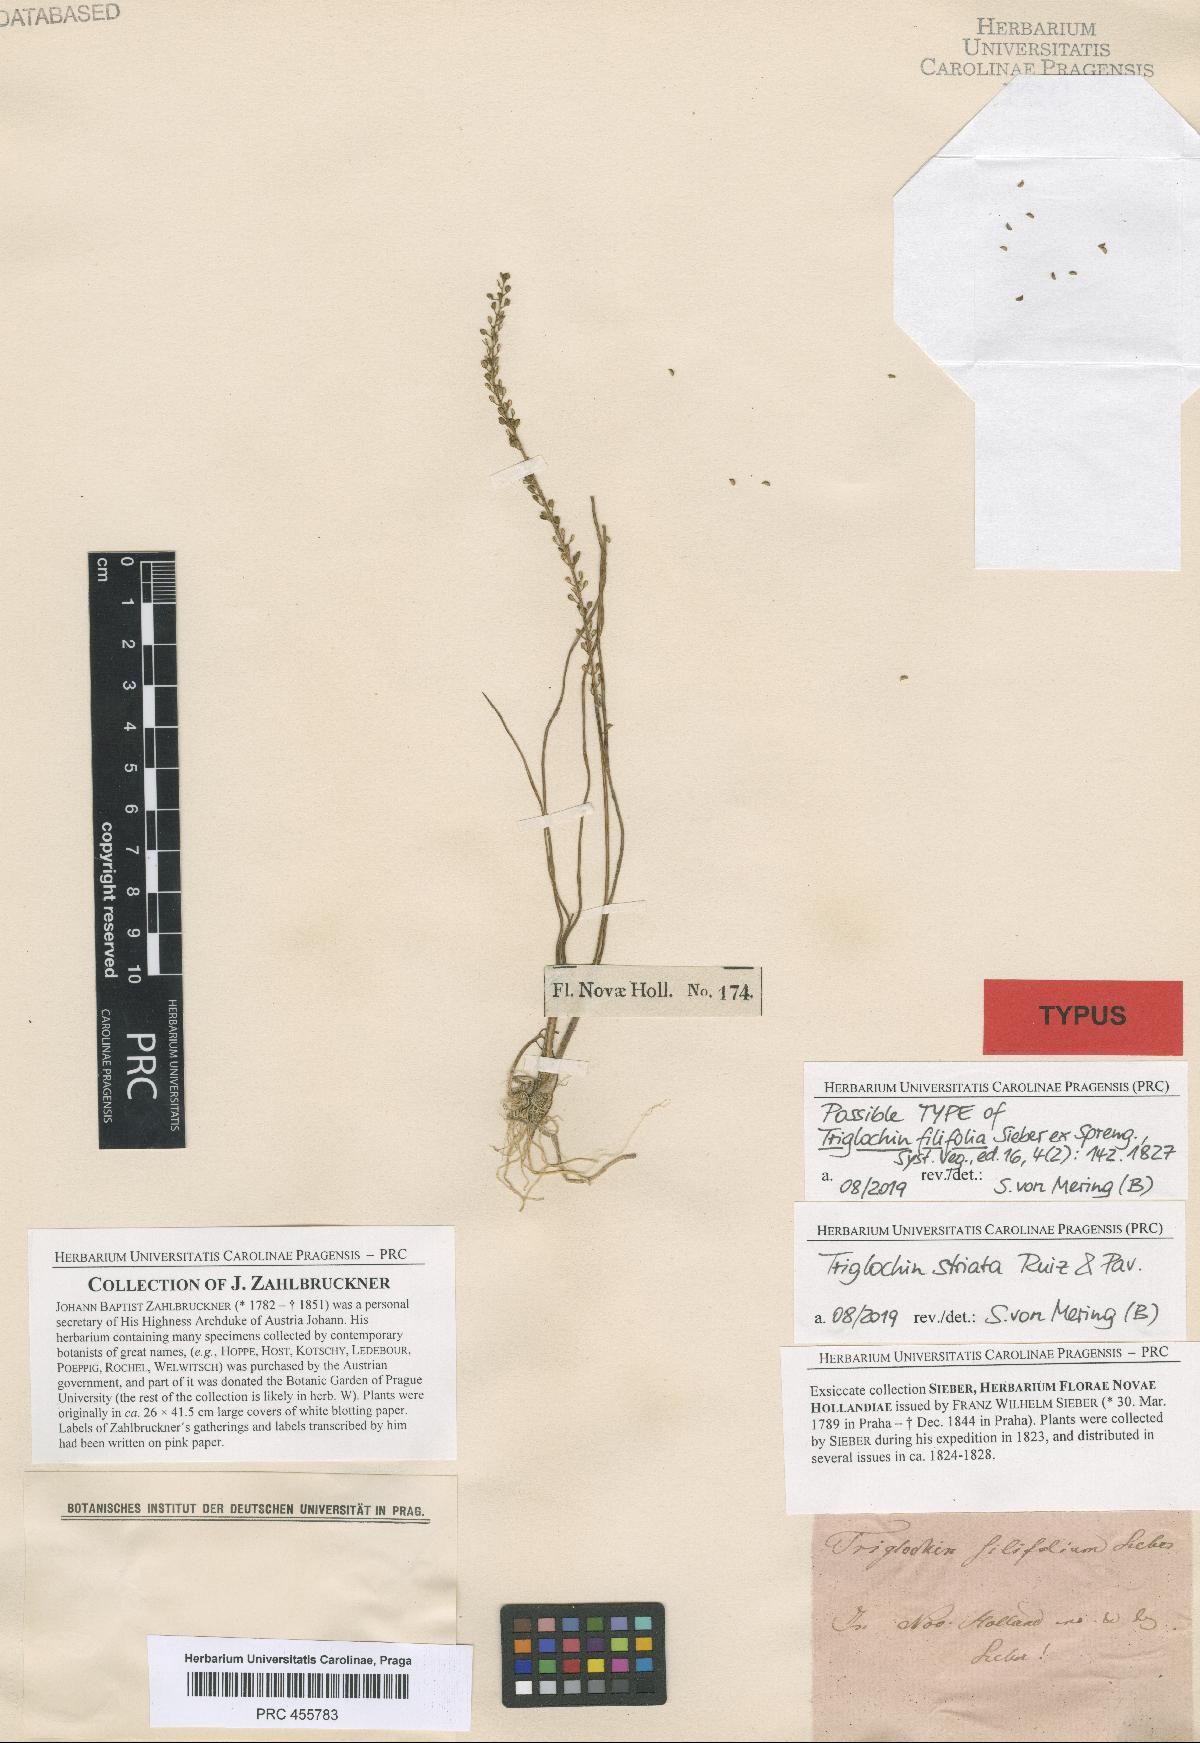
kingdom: Plantae
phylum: Tracheophyta
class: Liliopsida
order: Alismatales
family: Juncaginaceae
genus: Triglochin
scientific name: Triglochin striata
